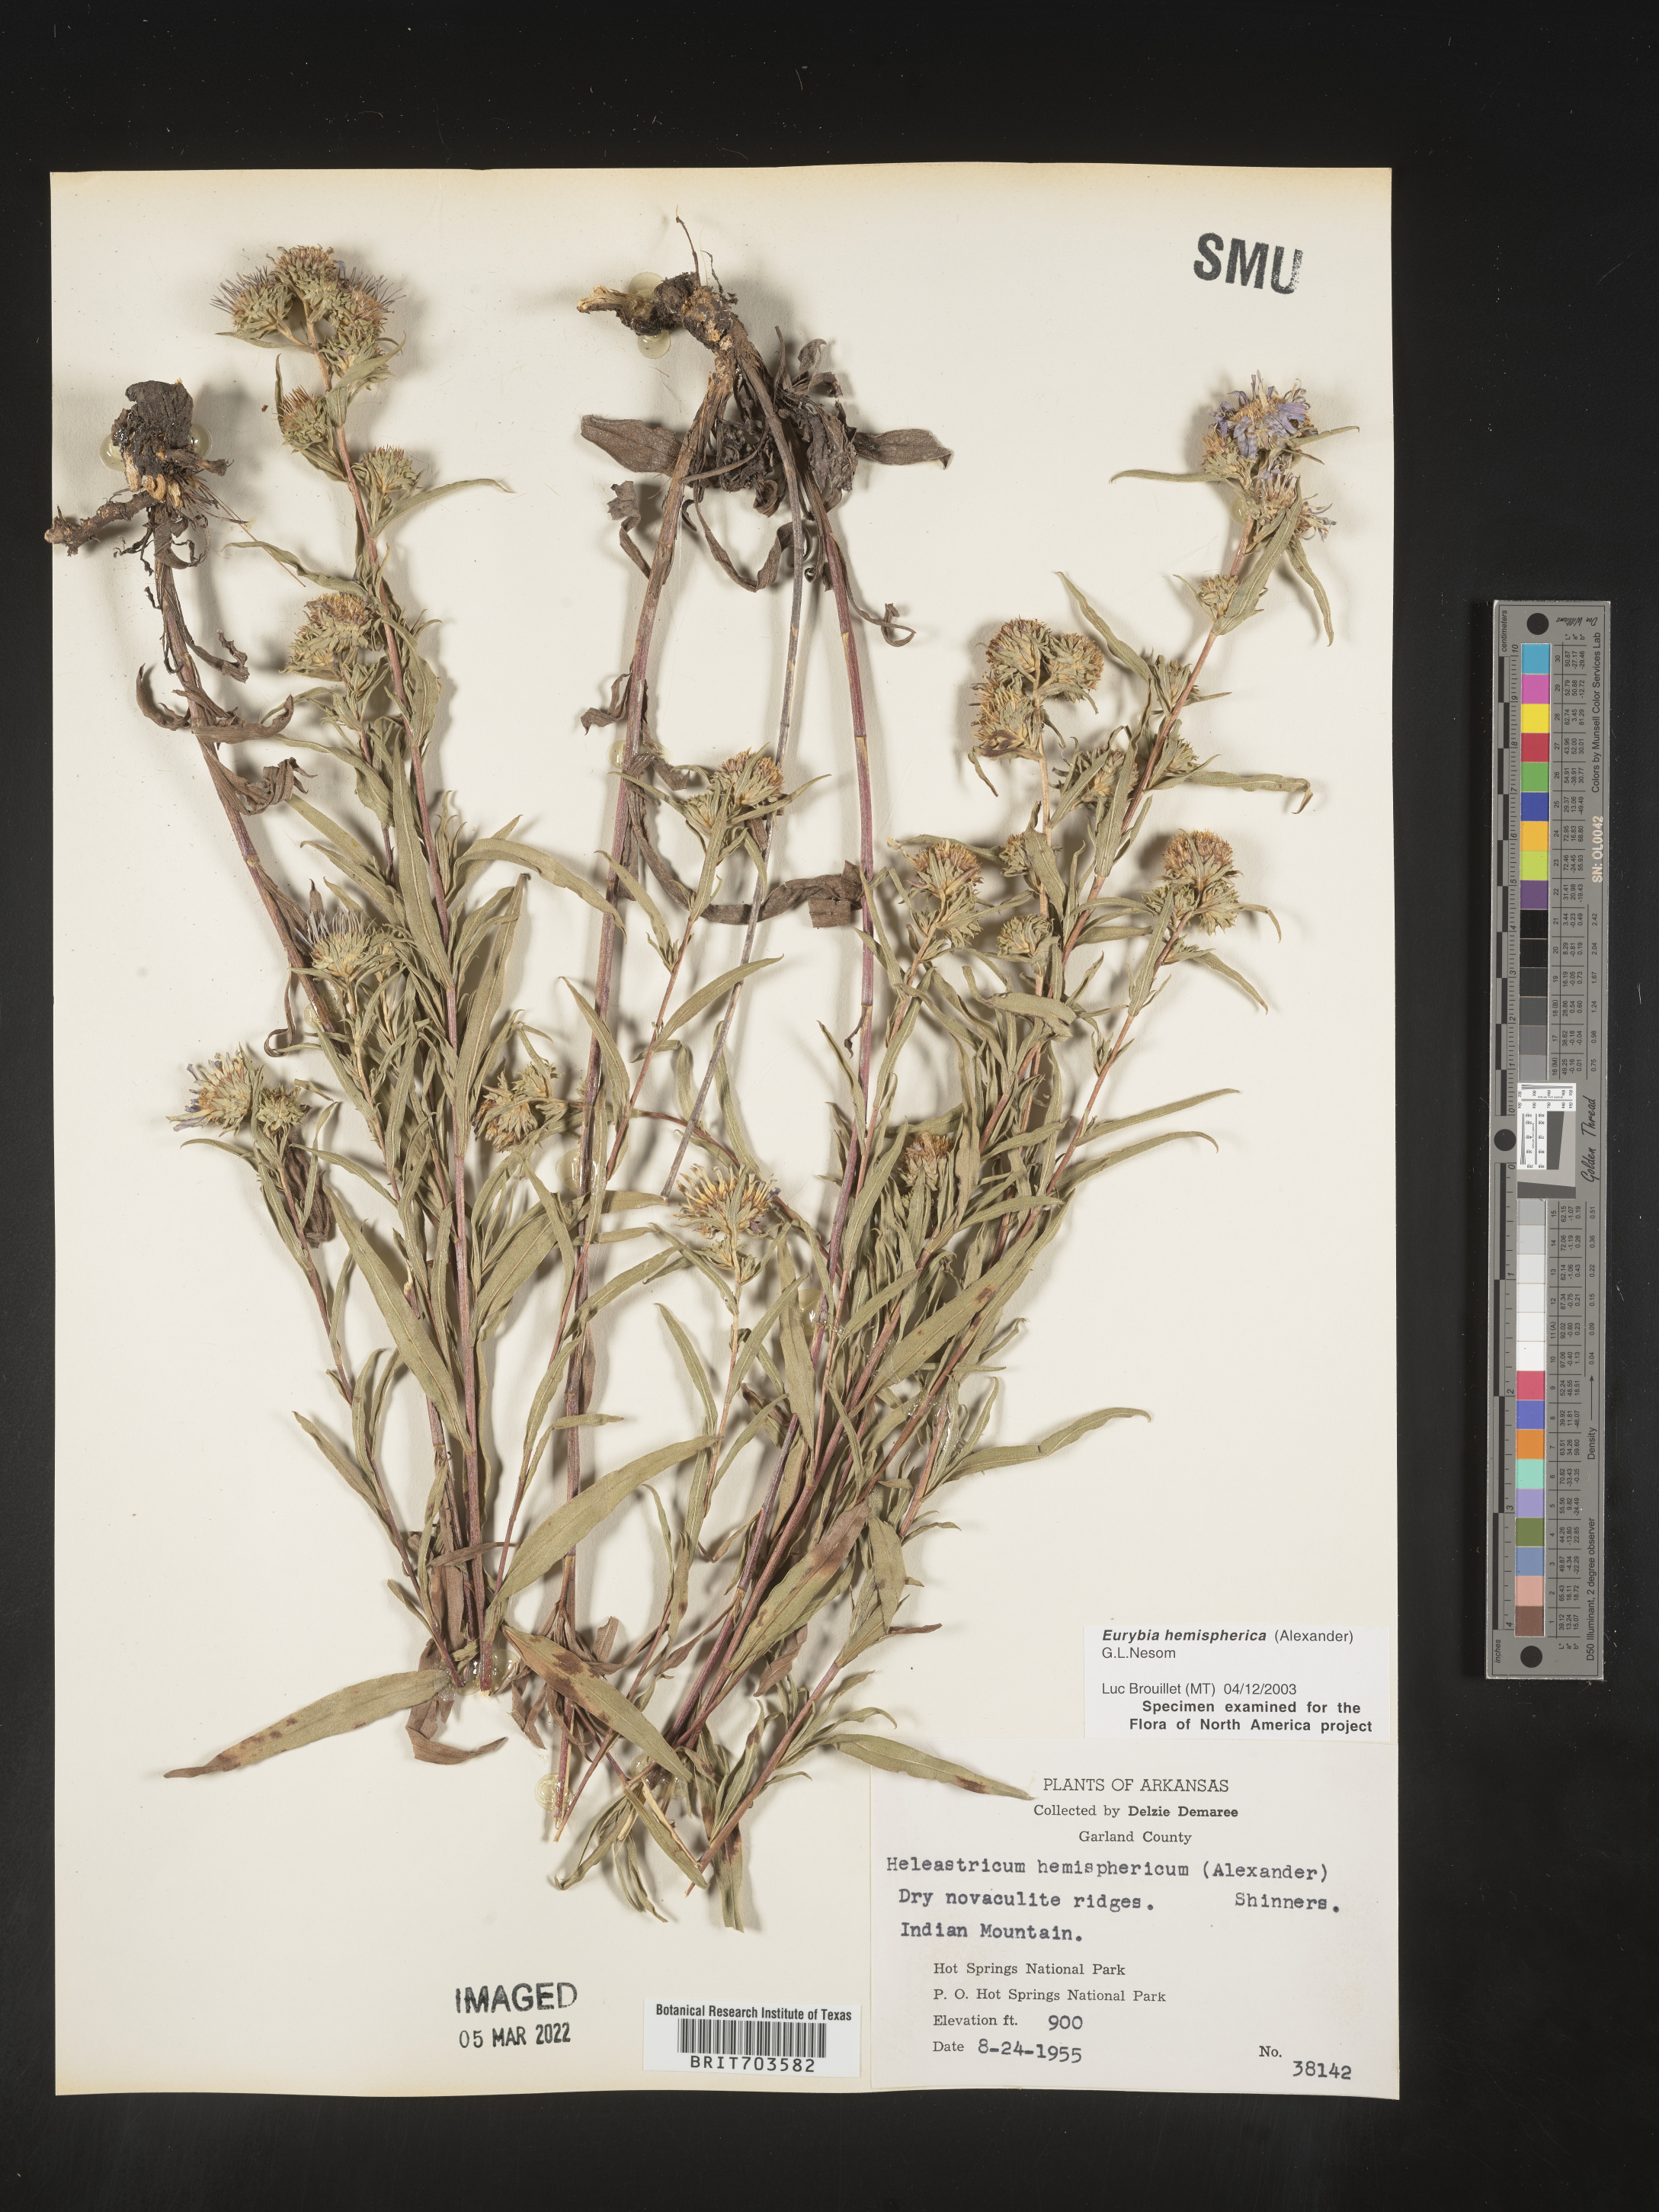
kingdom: Plantae
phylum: Tracheophyta
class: Magnoliopsida
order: Asterales
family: Asteraceae
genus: Eurybia
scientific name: Eurybia hemispherica
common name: Showy aster
